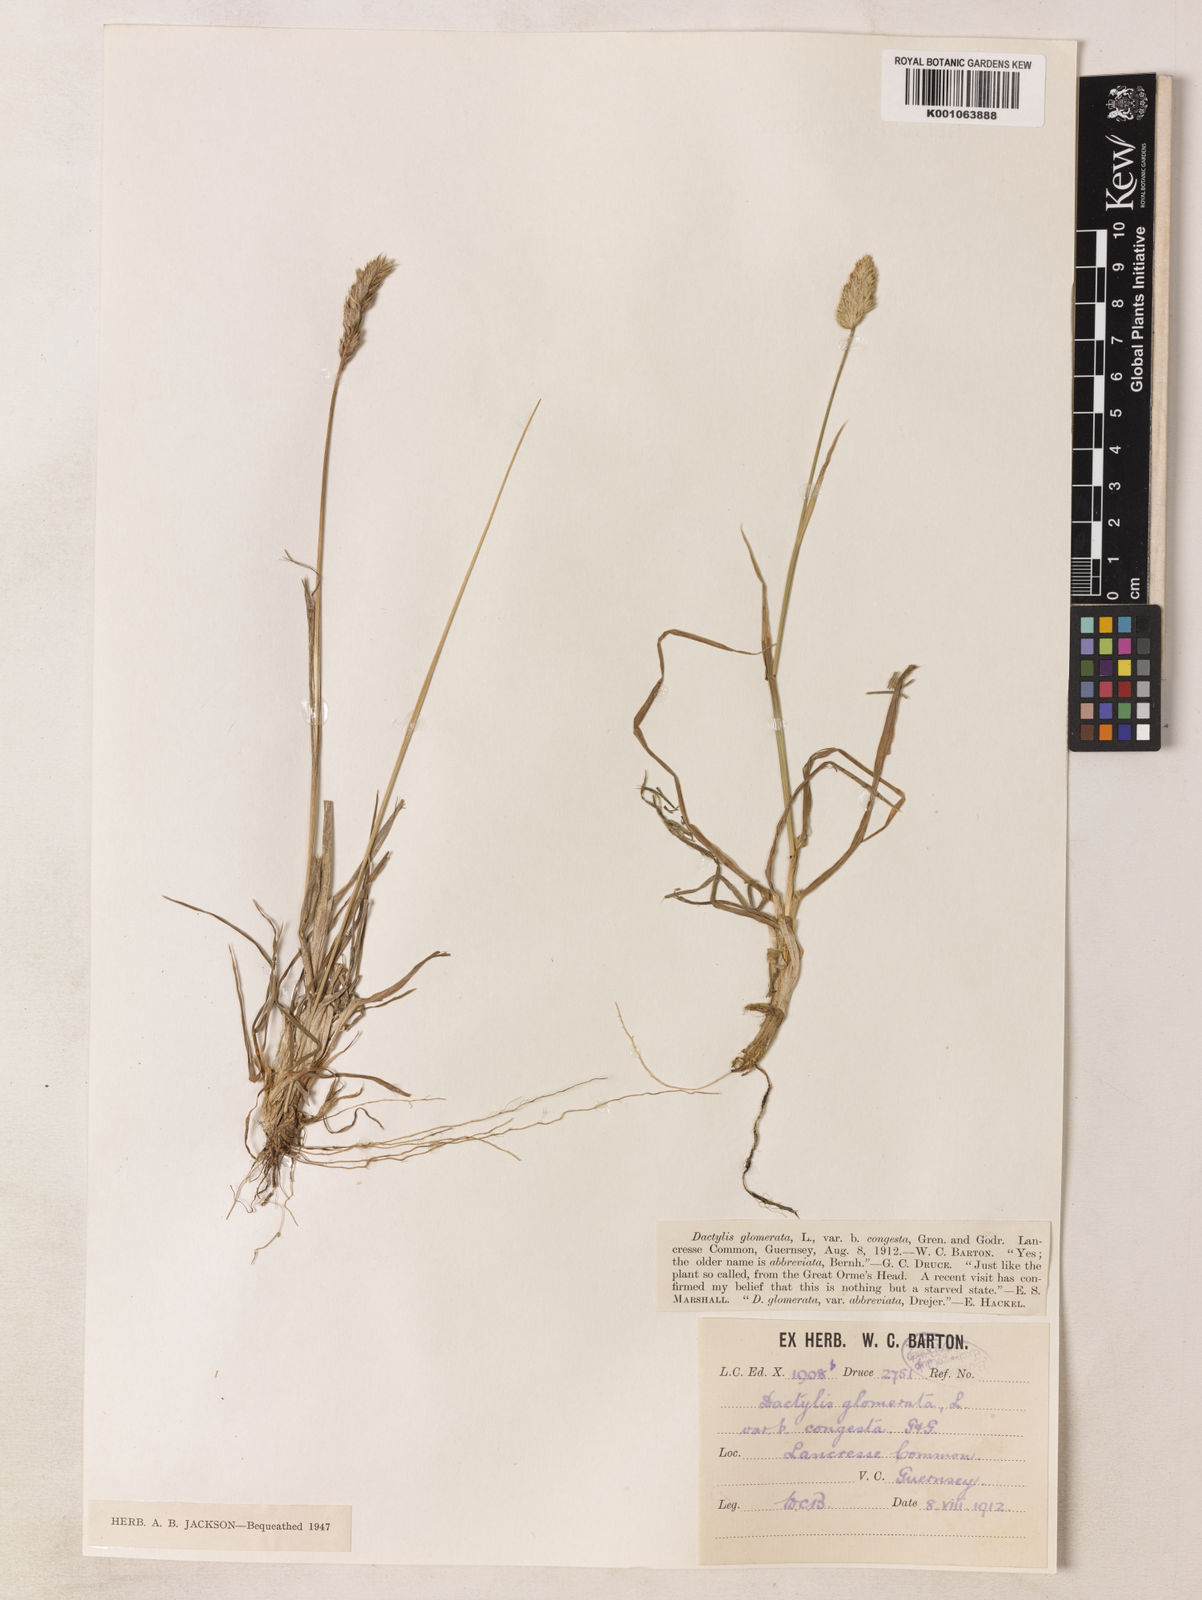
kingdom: Plantae
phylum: Tracheophyta
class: Liliopsida
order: Poales
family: Poaceae
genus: Dactylis
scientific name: Dactylis glomerata
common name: Orchardgrass
